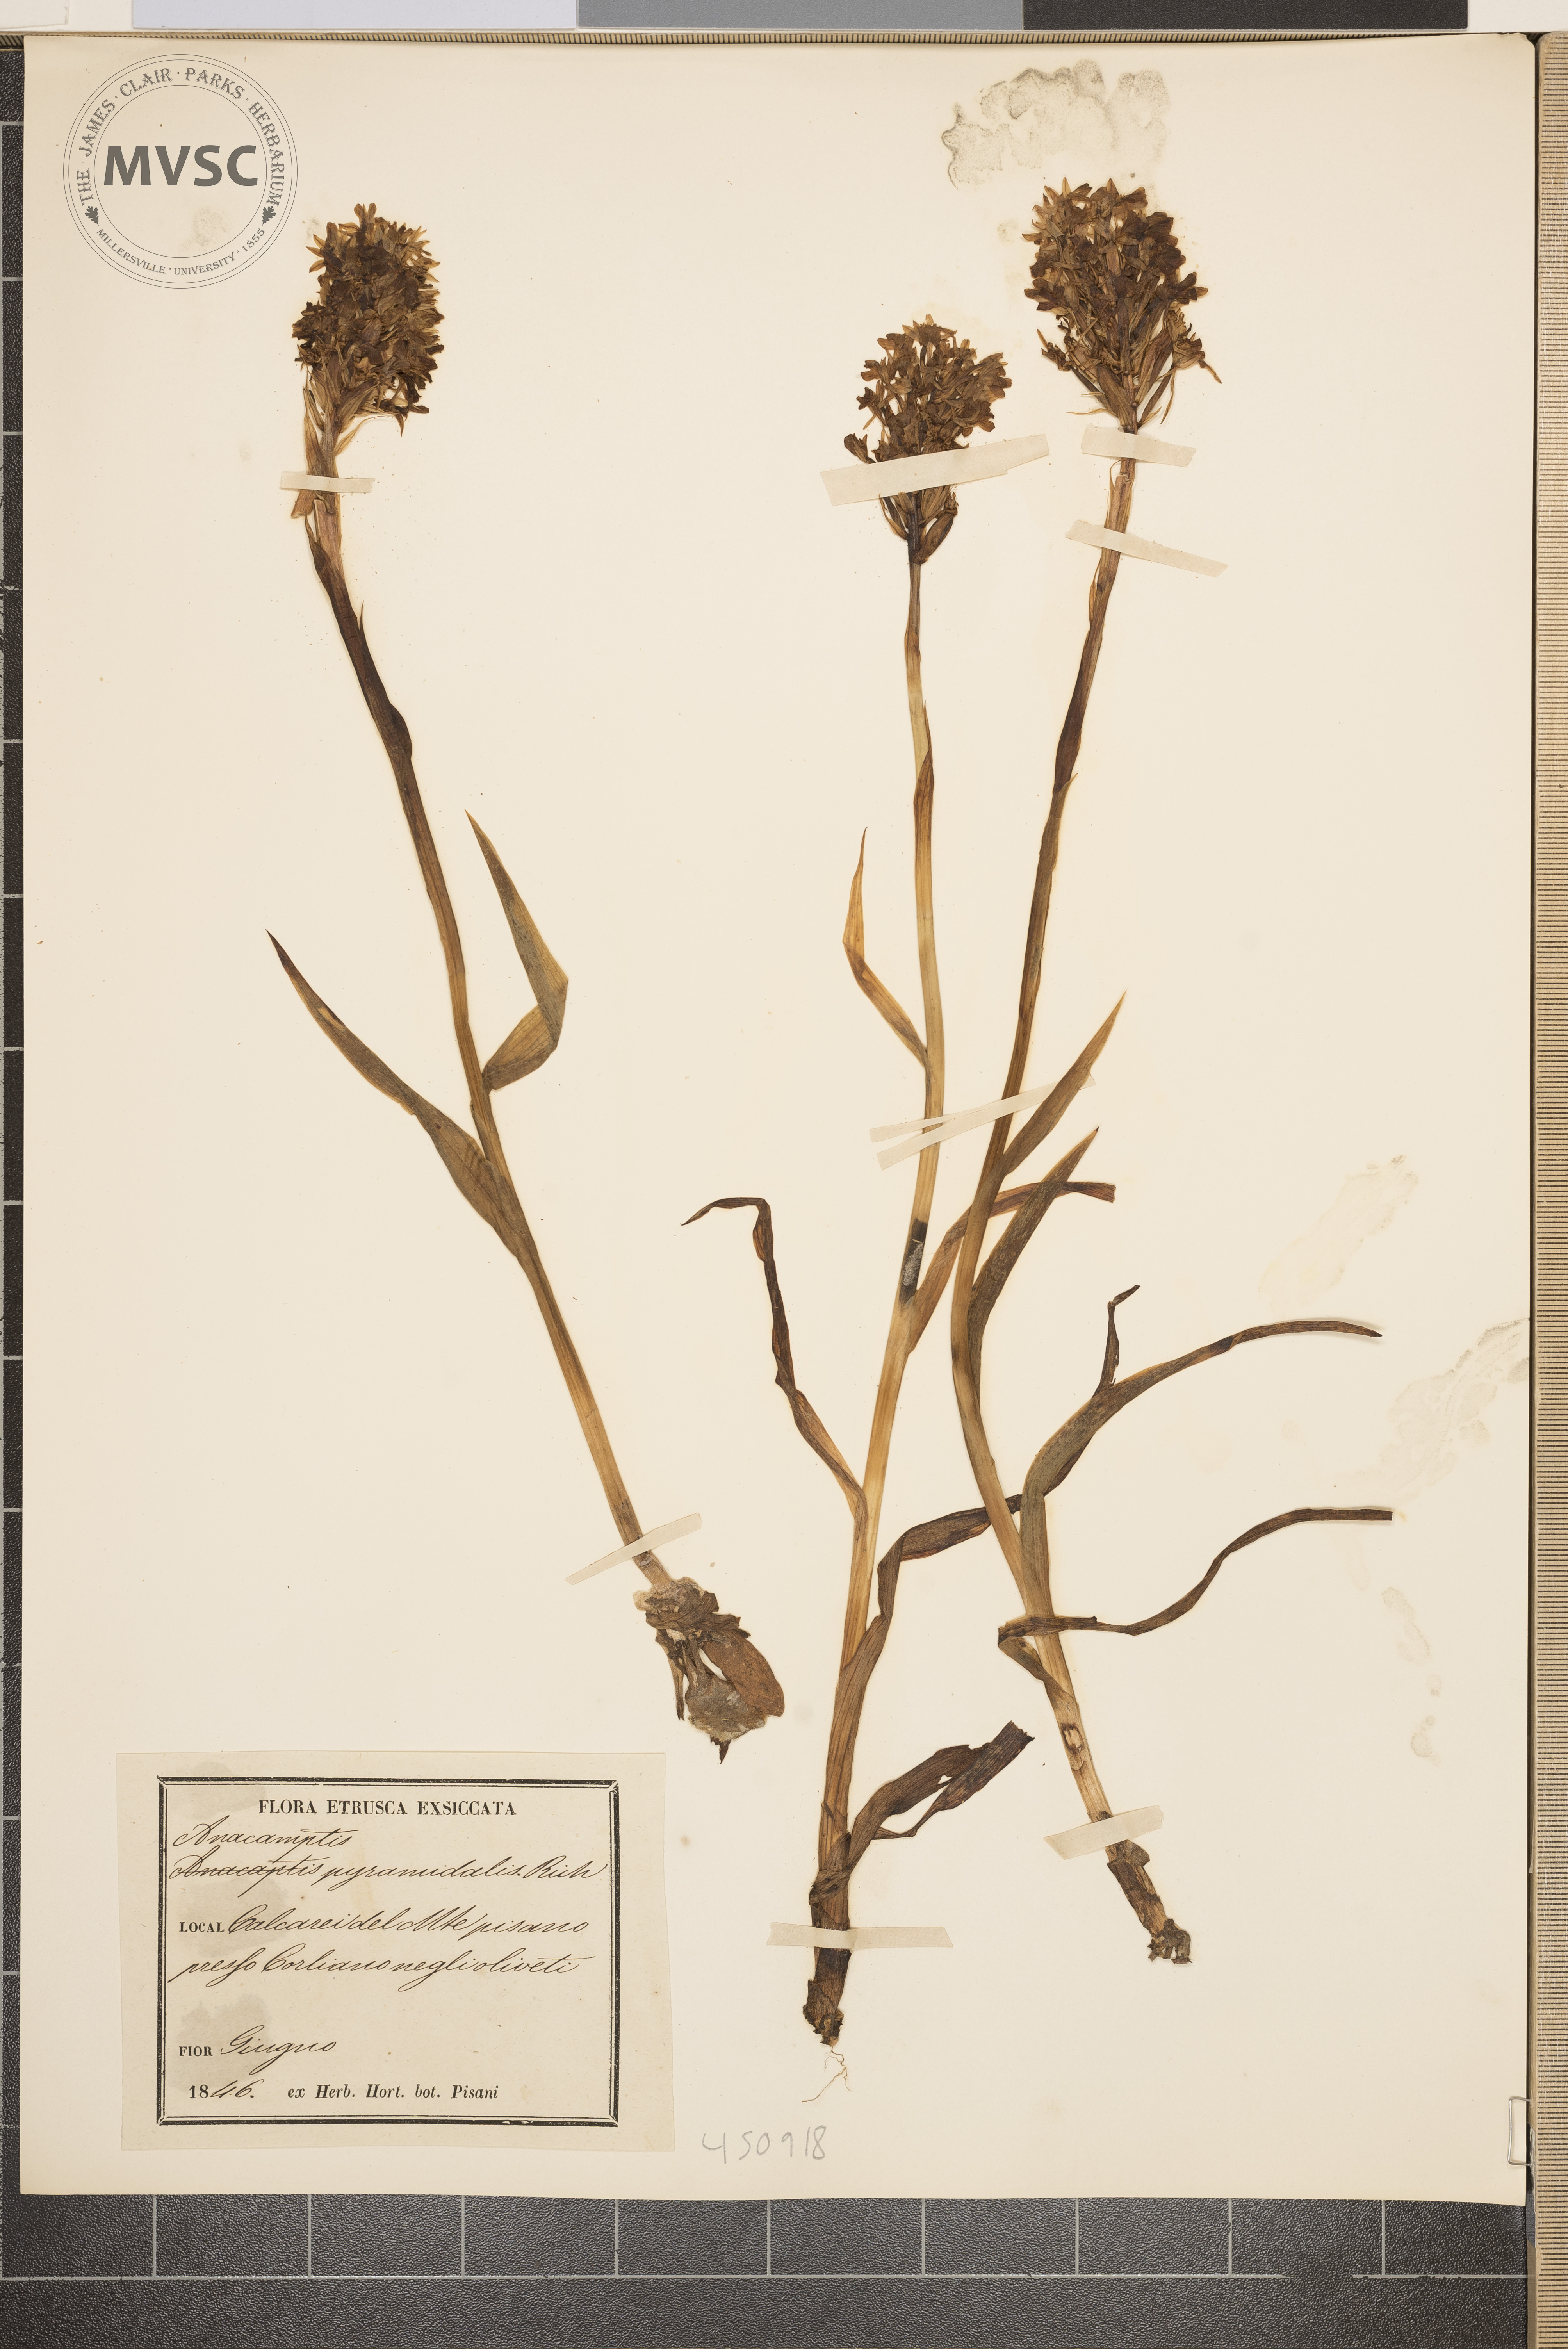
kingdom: Plantae
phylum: Tracheophyta
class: Liliopsida
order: Asparagales
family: Orchidaceae
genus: Anacamptis
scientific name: Anacamptis pyramidalis
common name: Pyramidal orchid
